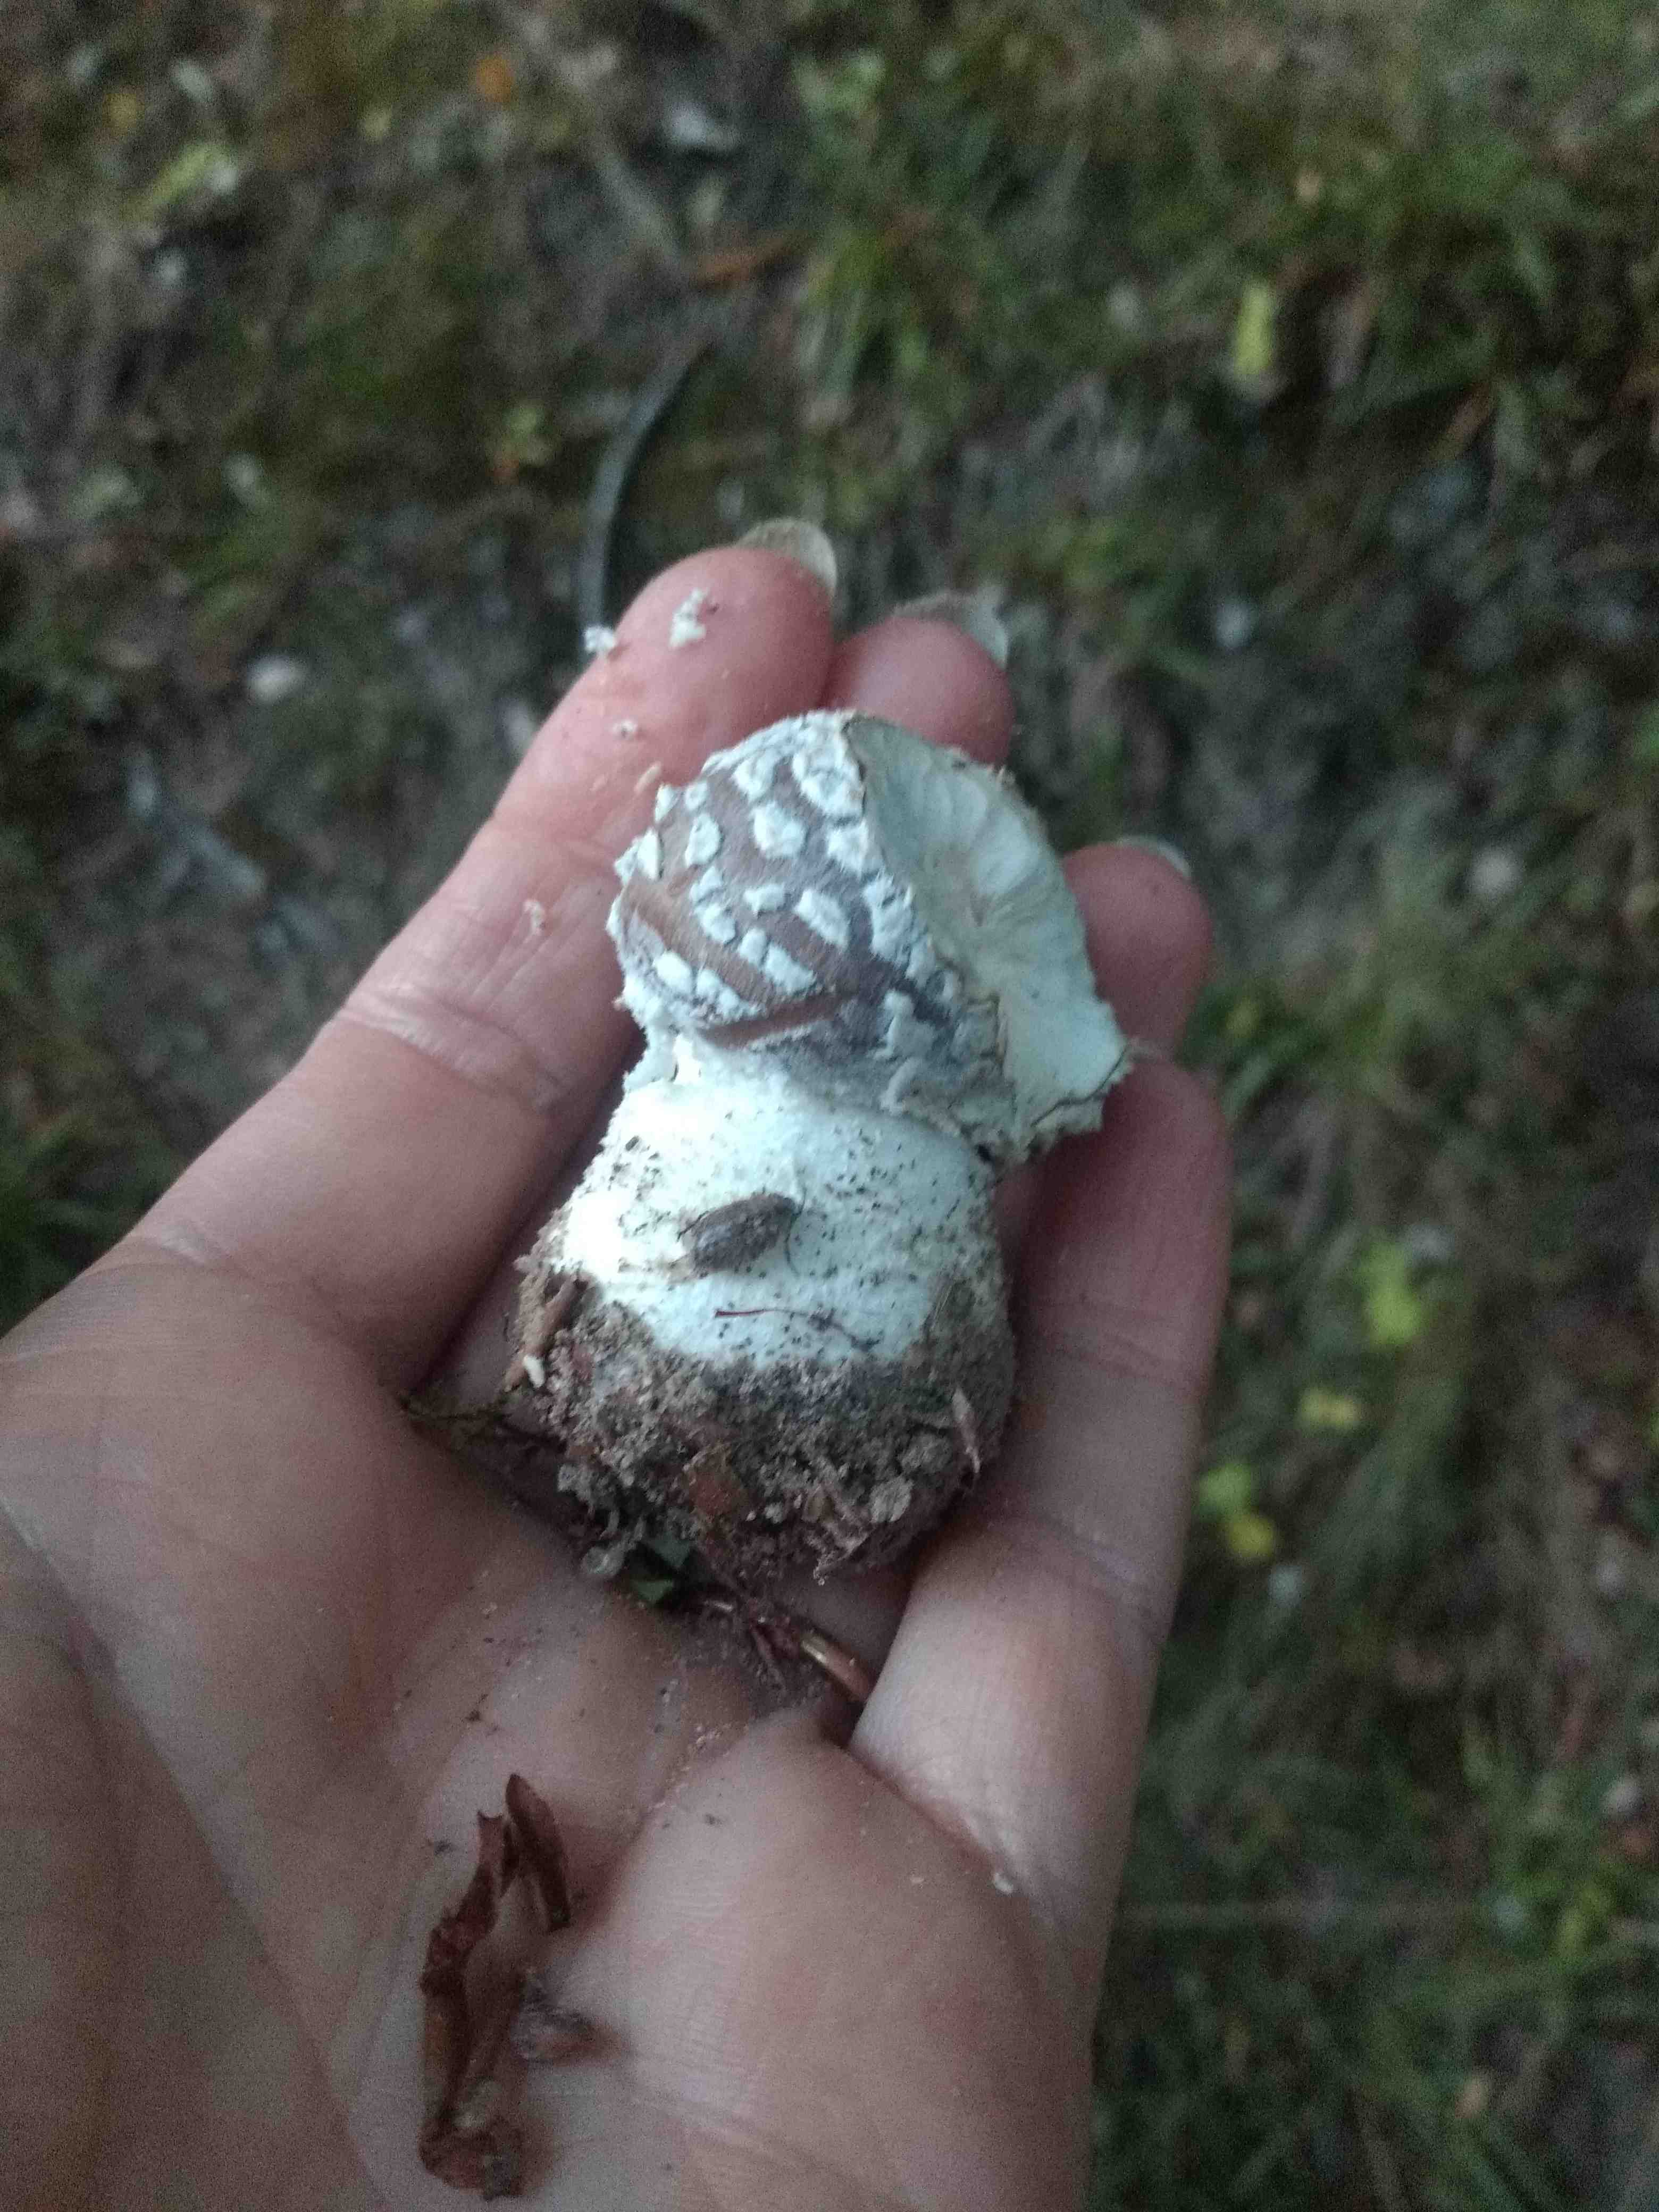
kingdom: Fungi
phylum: Basidiomycota
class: Agaricomycetes
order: Agaricales
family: Amanitaceae
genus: Amanita
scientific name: Amanita
